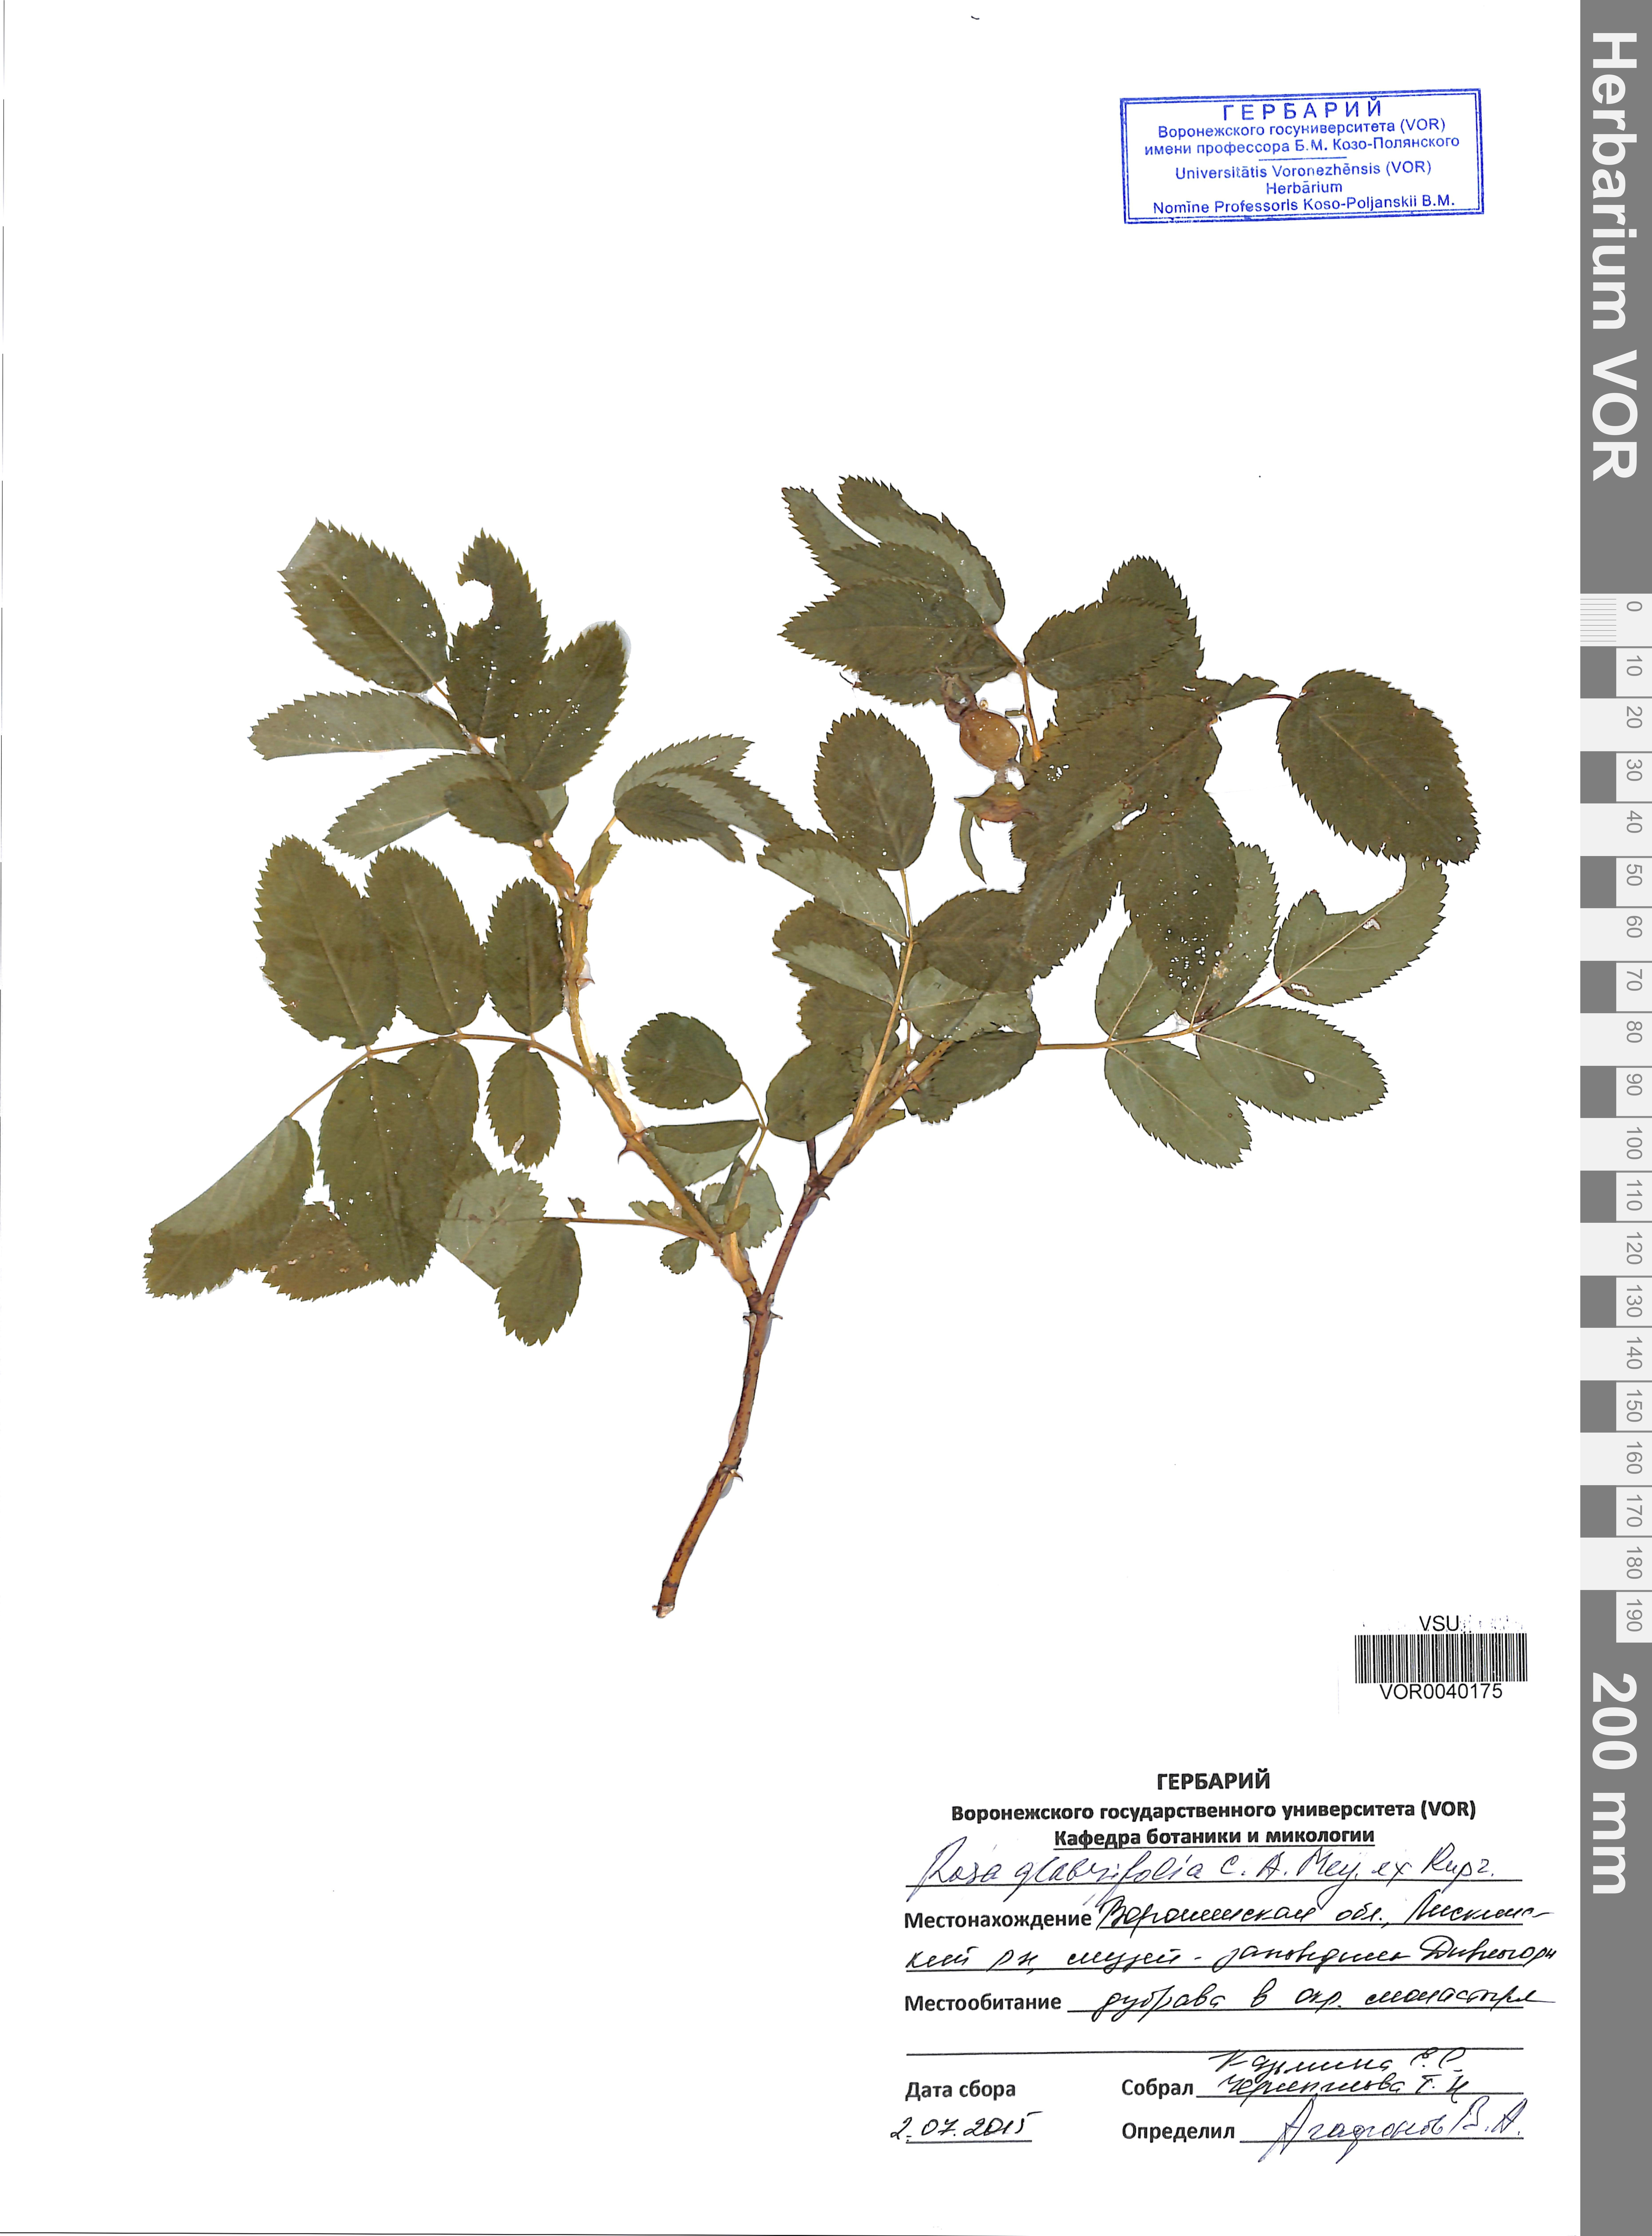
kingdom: Plantae
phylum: Tracheophyta
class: Magnoliopsida
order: Rosales
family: Rosaceae
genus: Rosa
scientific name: Rosa glabrifolia
